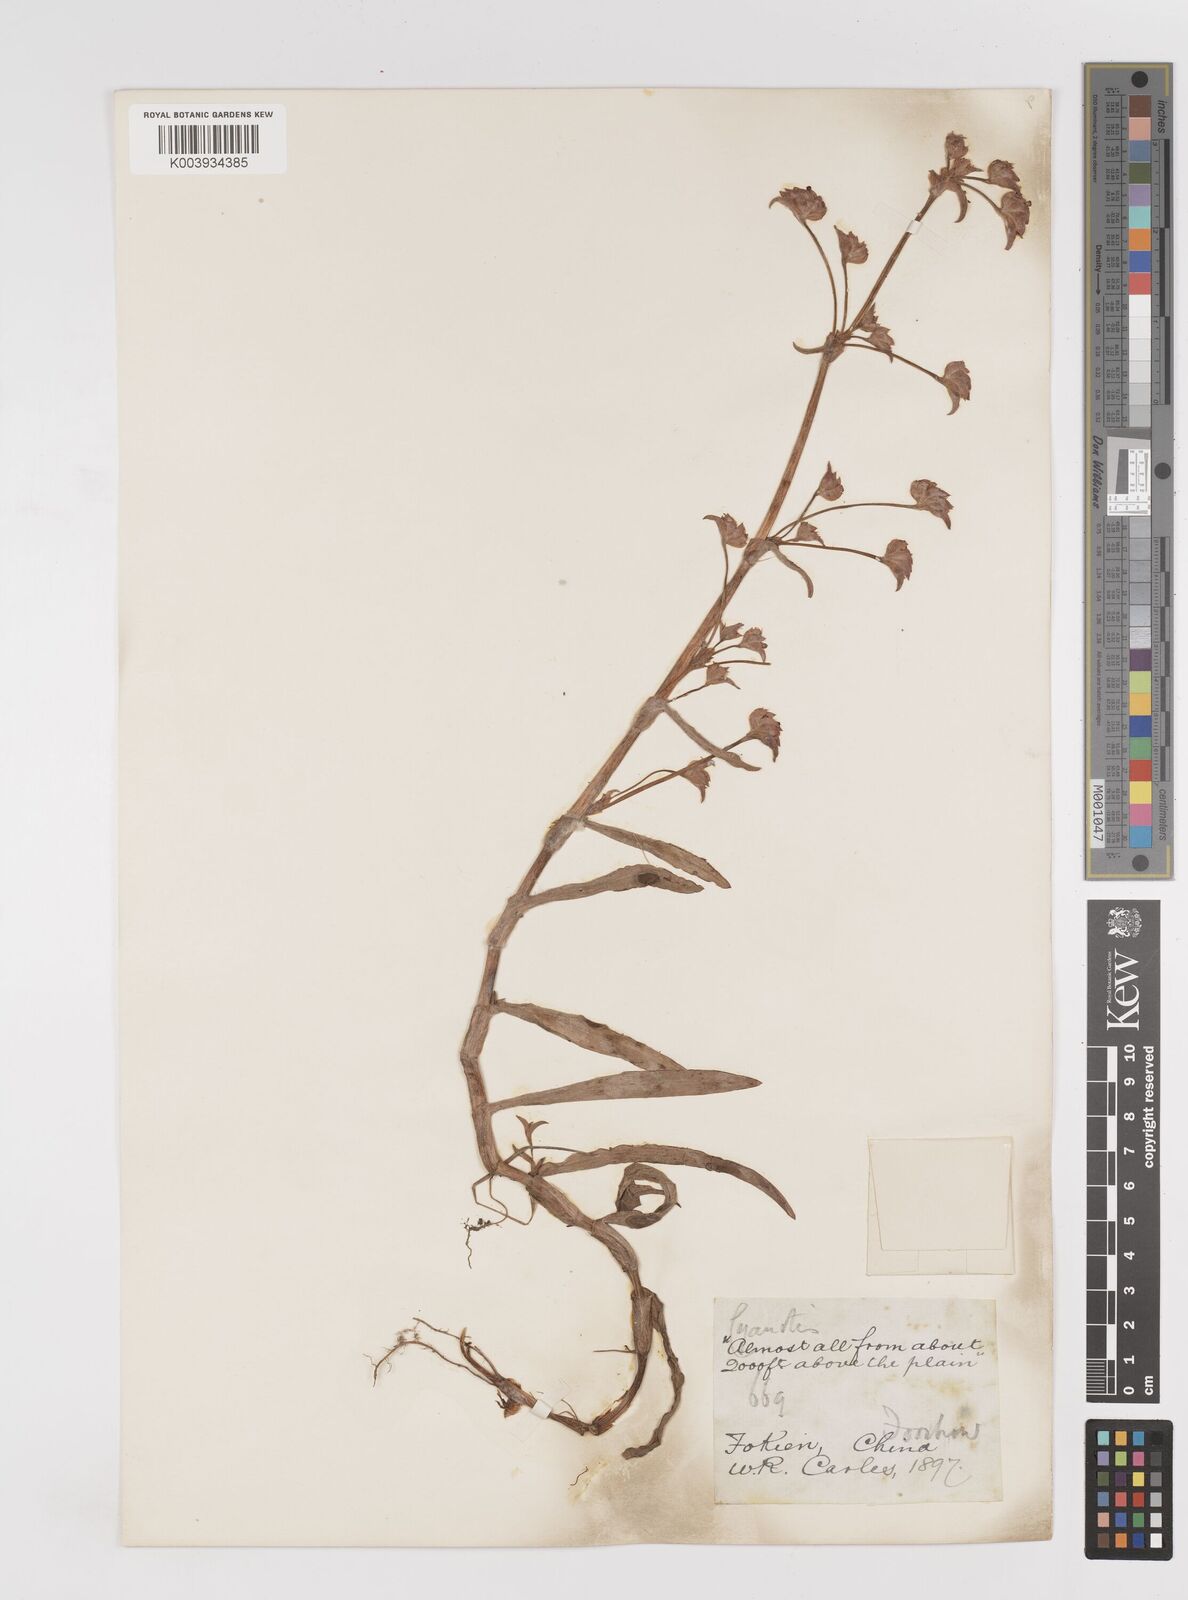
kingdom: Plantae
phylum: Tracheophyta
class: Liliopsida
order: Commelinales
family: Commelinaceae
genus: Cyanotis
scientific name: Cyanotis
